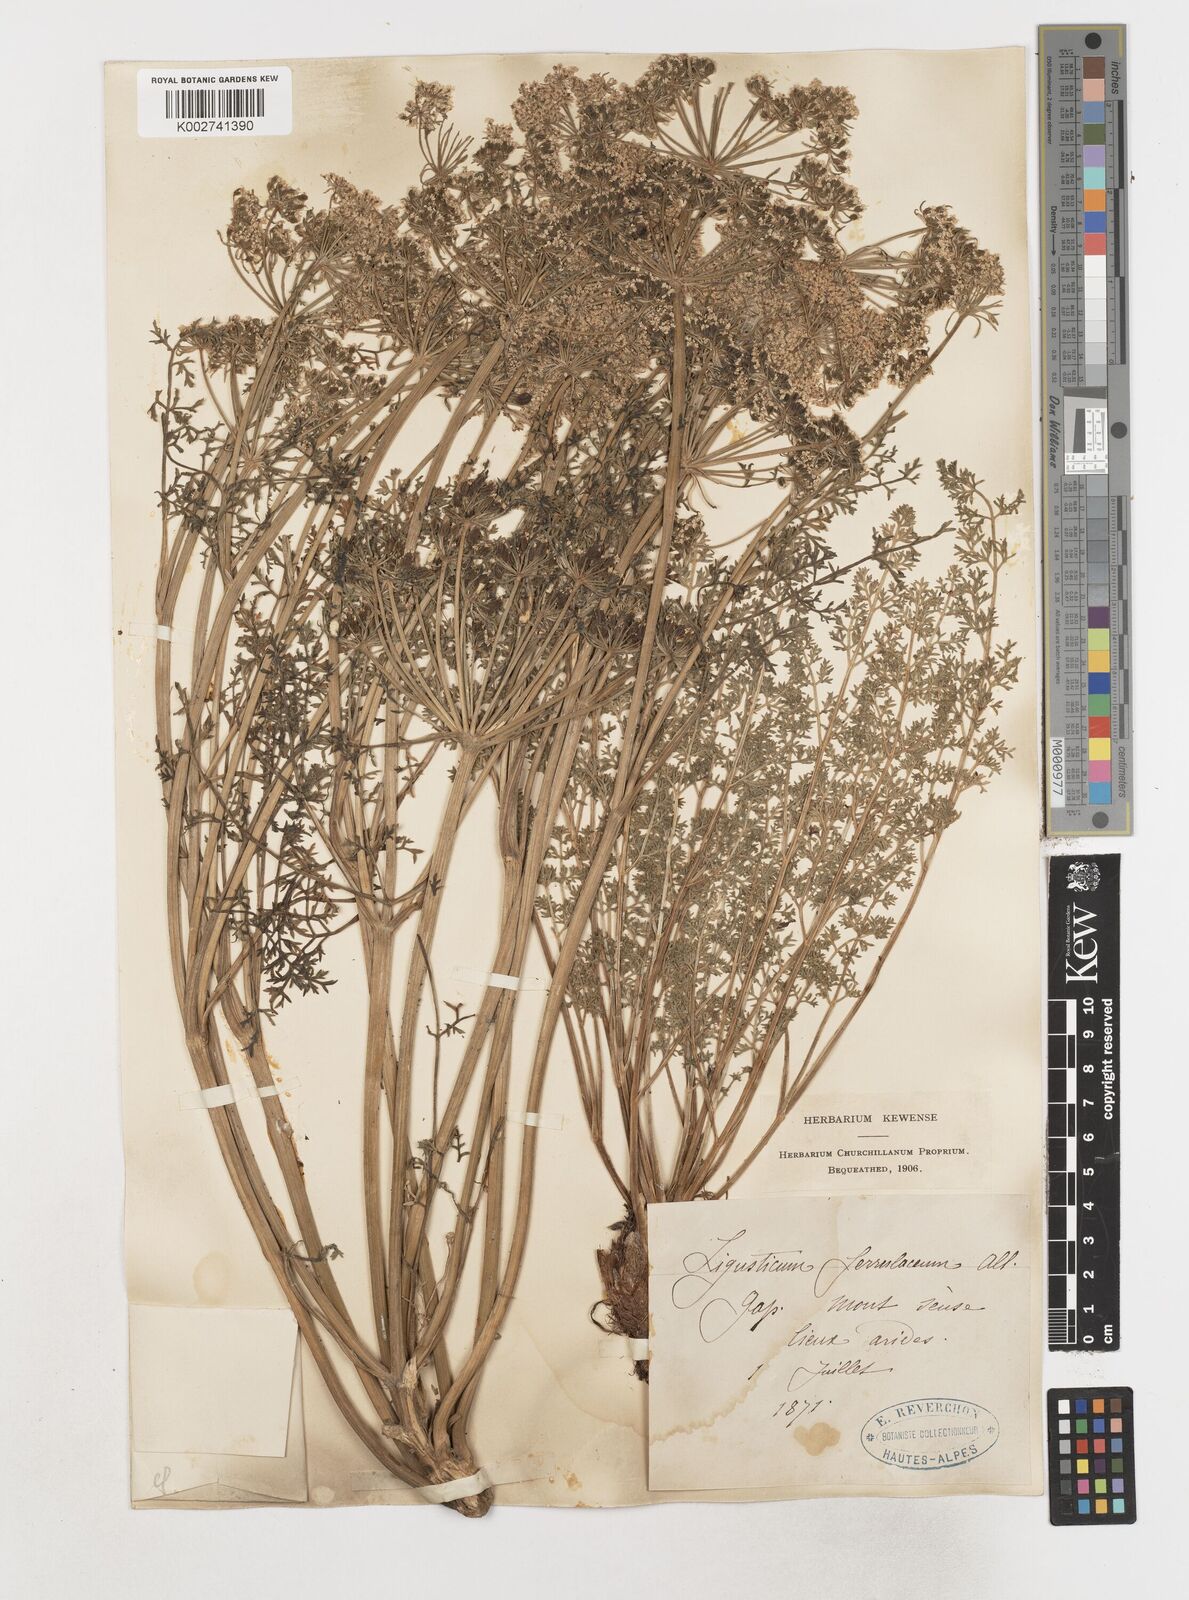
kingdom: Plantae
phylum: Tracheophyta
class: Magnoliopsida
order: Apiales
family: Apiaceae
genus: Coristospermum
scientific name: Coristospermum ferulaceum
